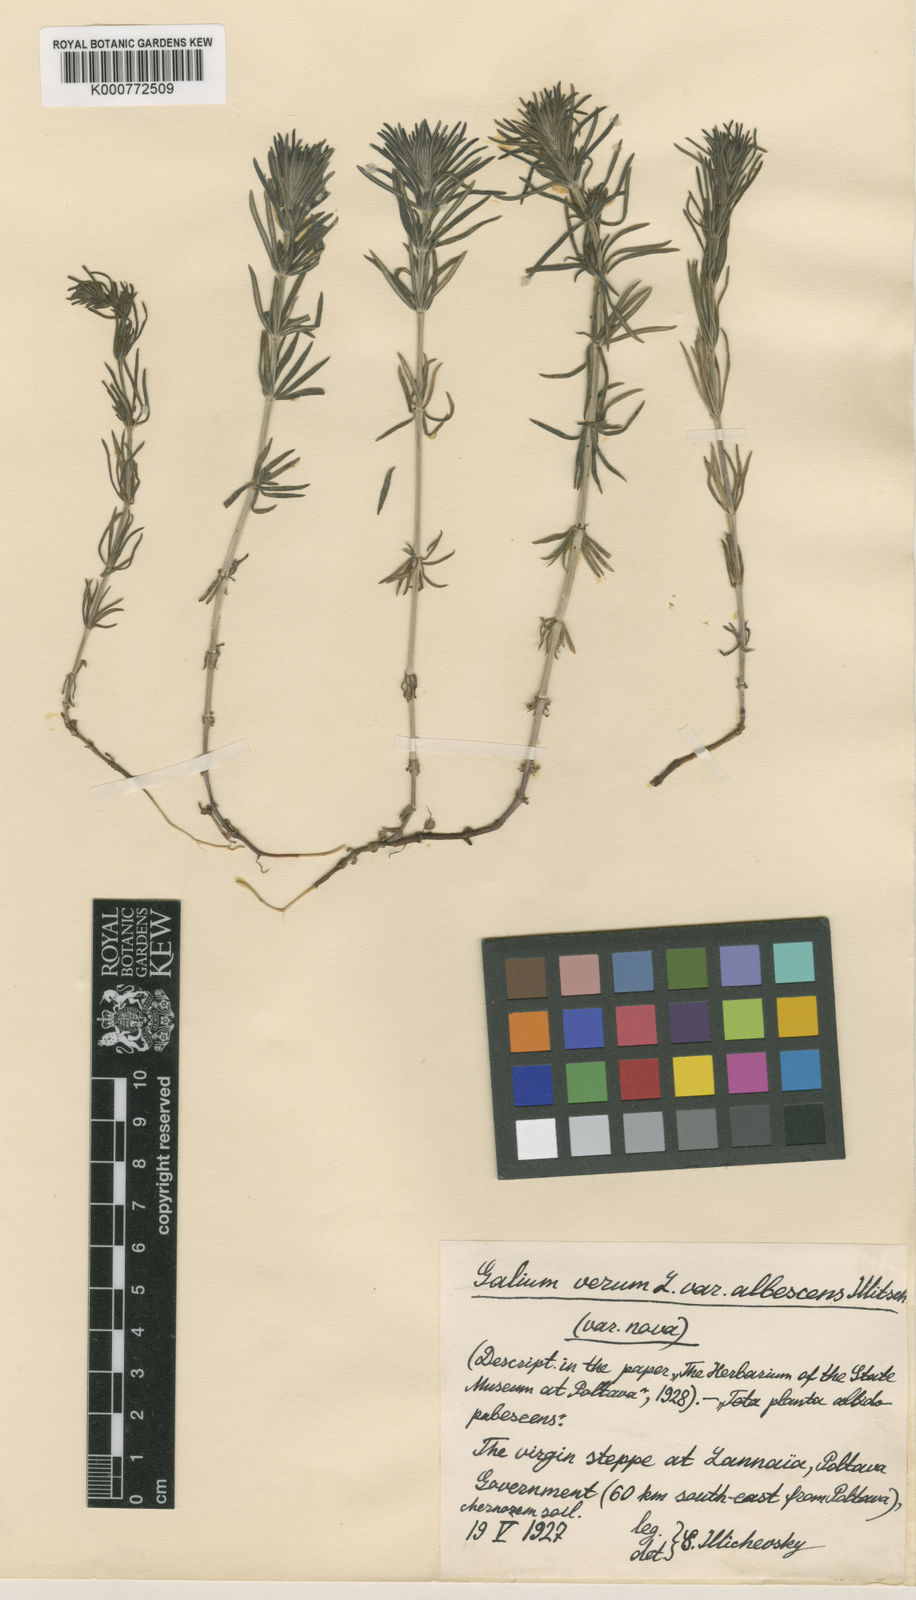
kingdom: Plantae
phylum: Tracheophyta
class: Magnoliopsida
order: Gentianales
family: Rubiaceae
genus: Galium
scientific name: Galium verum
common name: Lady's bedstraw
